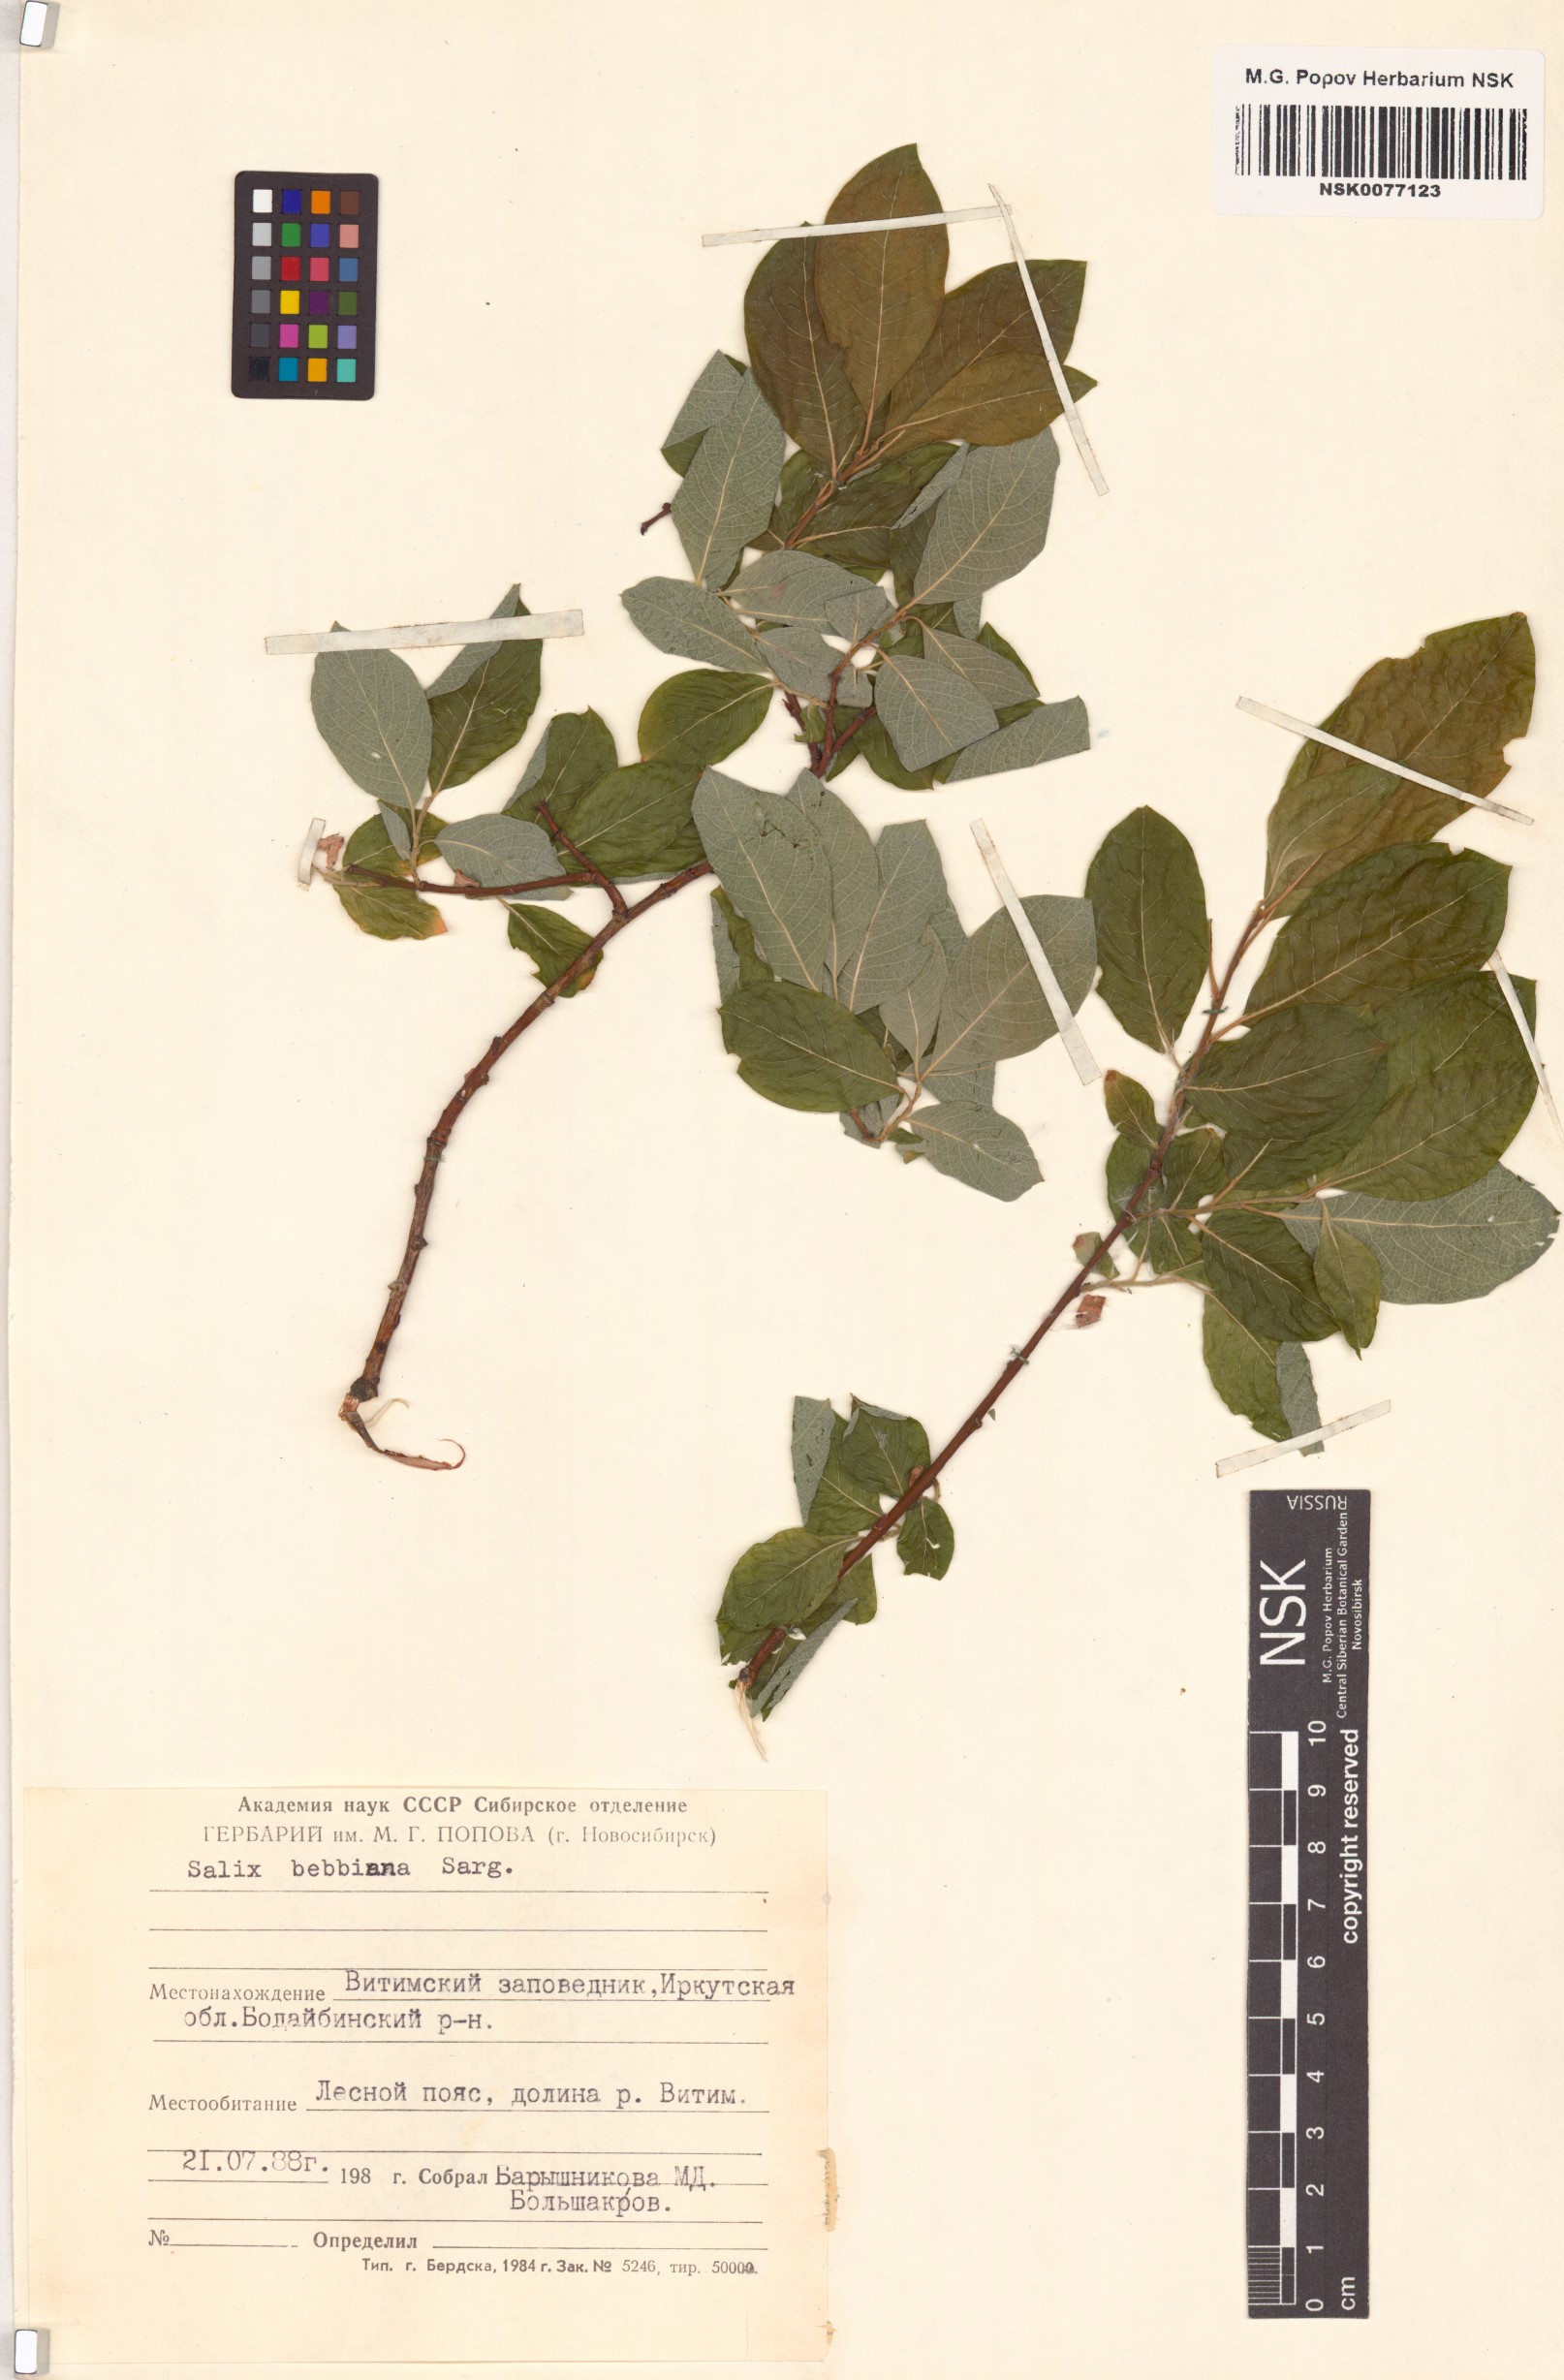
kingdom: Plantae
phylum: Tracheophyta
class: Magnoliopsida
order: Malpighiales
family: Salicaceae
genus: Salix
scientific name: Salix bebbiana
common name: Bebb's willow
